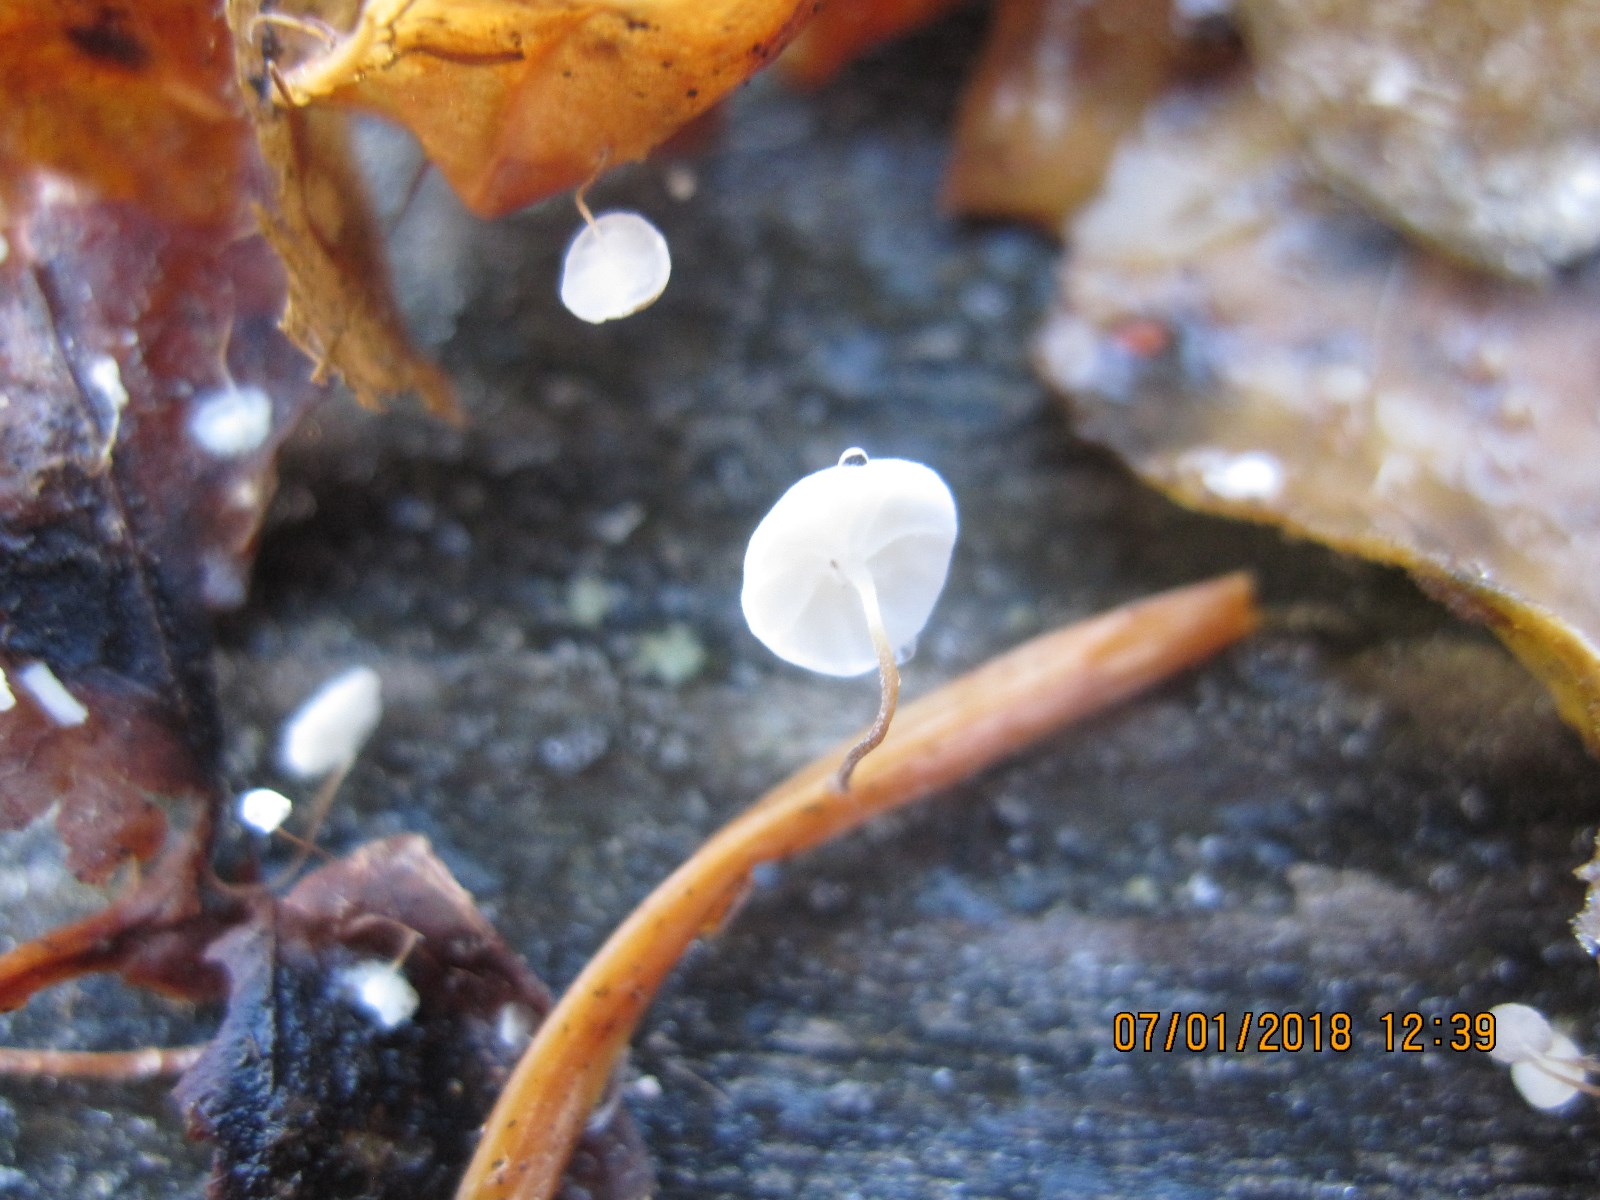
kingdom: Fungi
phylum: Basidiomycota
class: Agaricomycetes
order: Agaricales
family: Marasmiaceae
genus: Marasmius
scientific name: Marasmius epiphylloides
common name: vedbend-bruskhat
